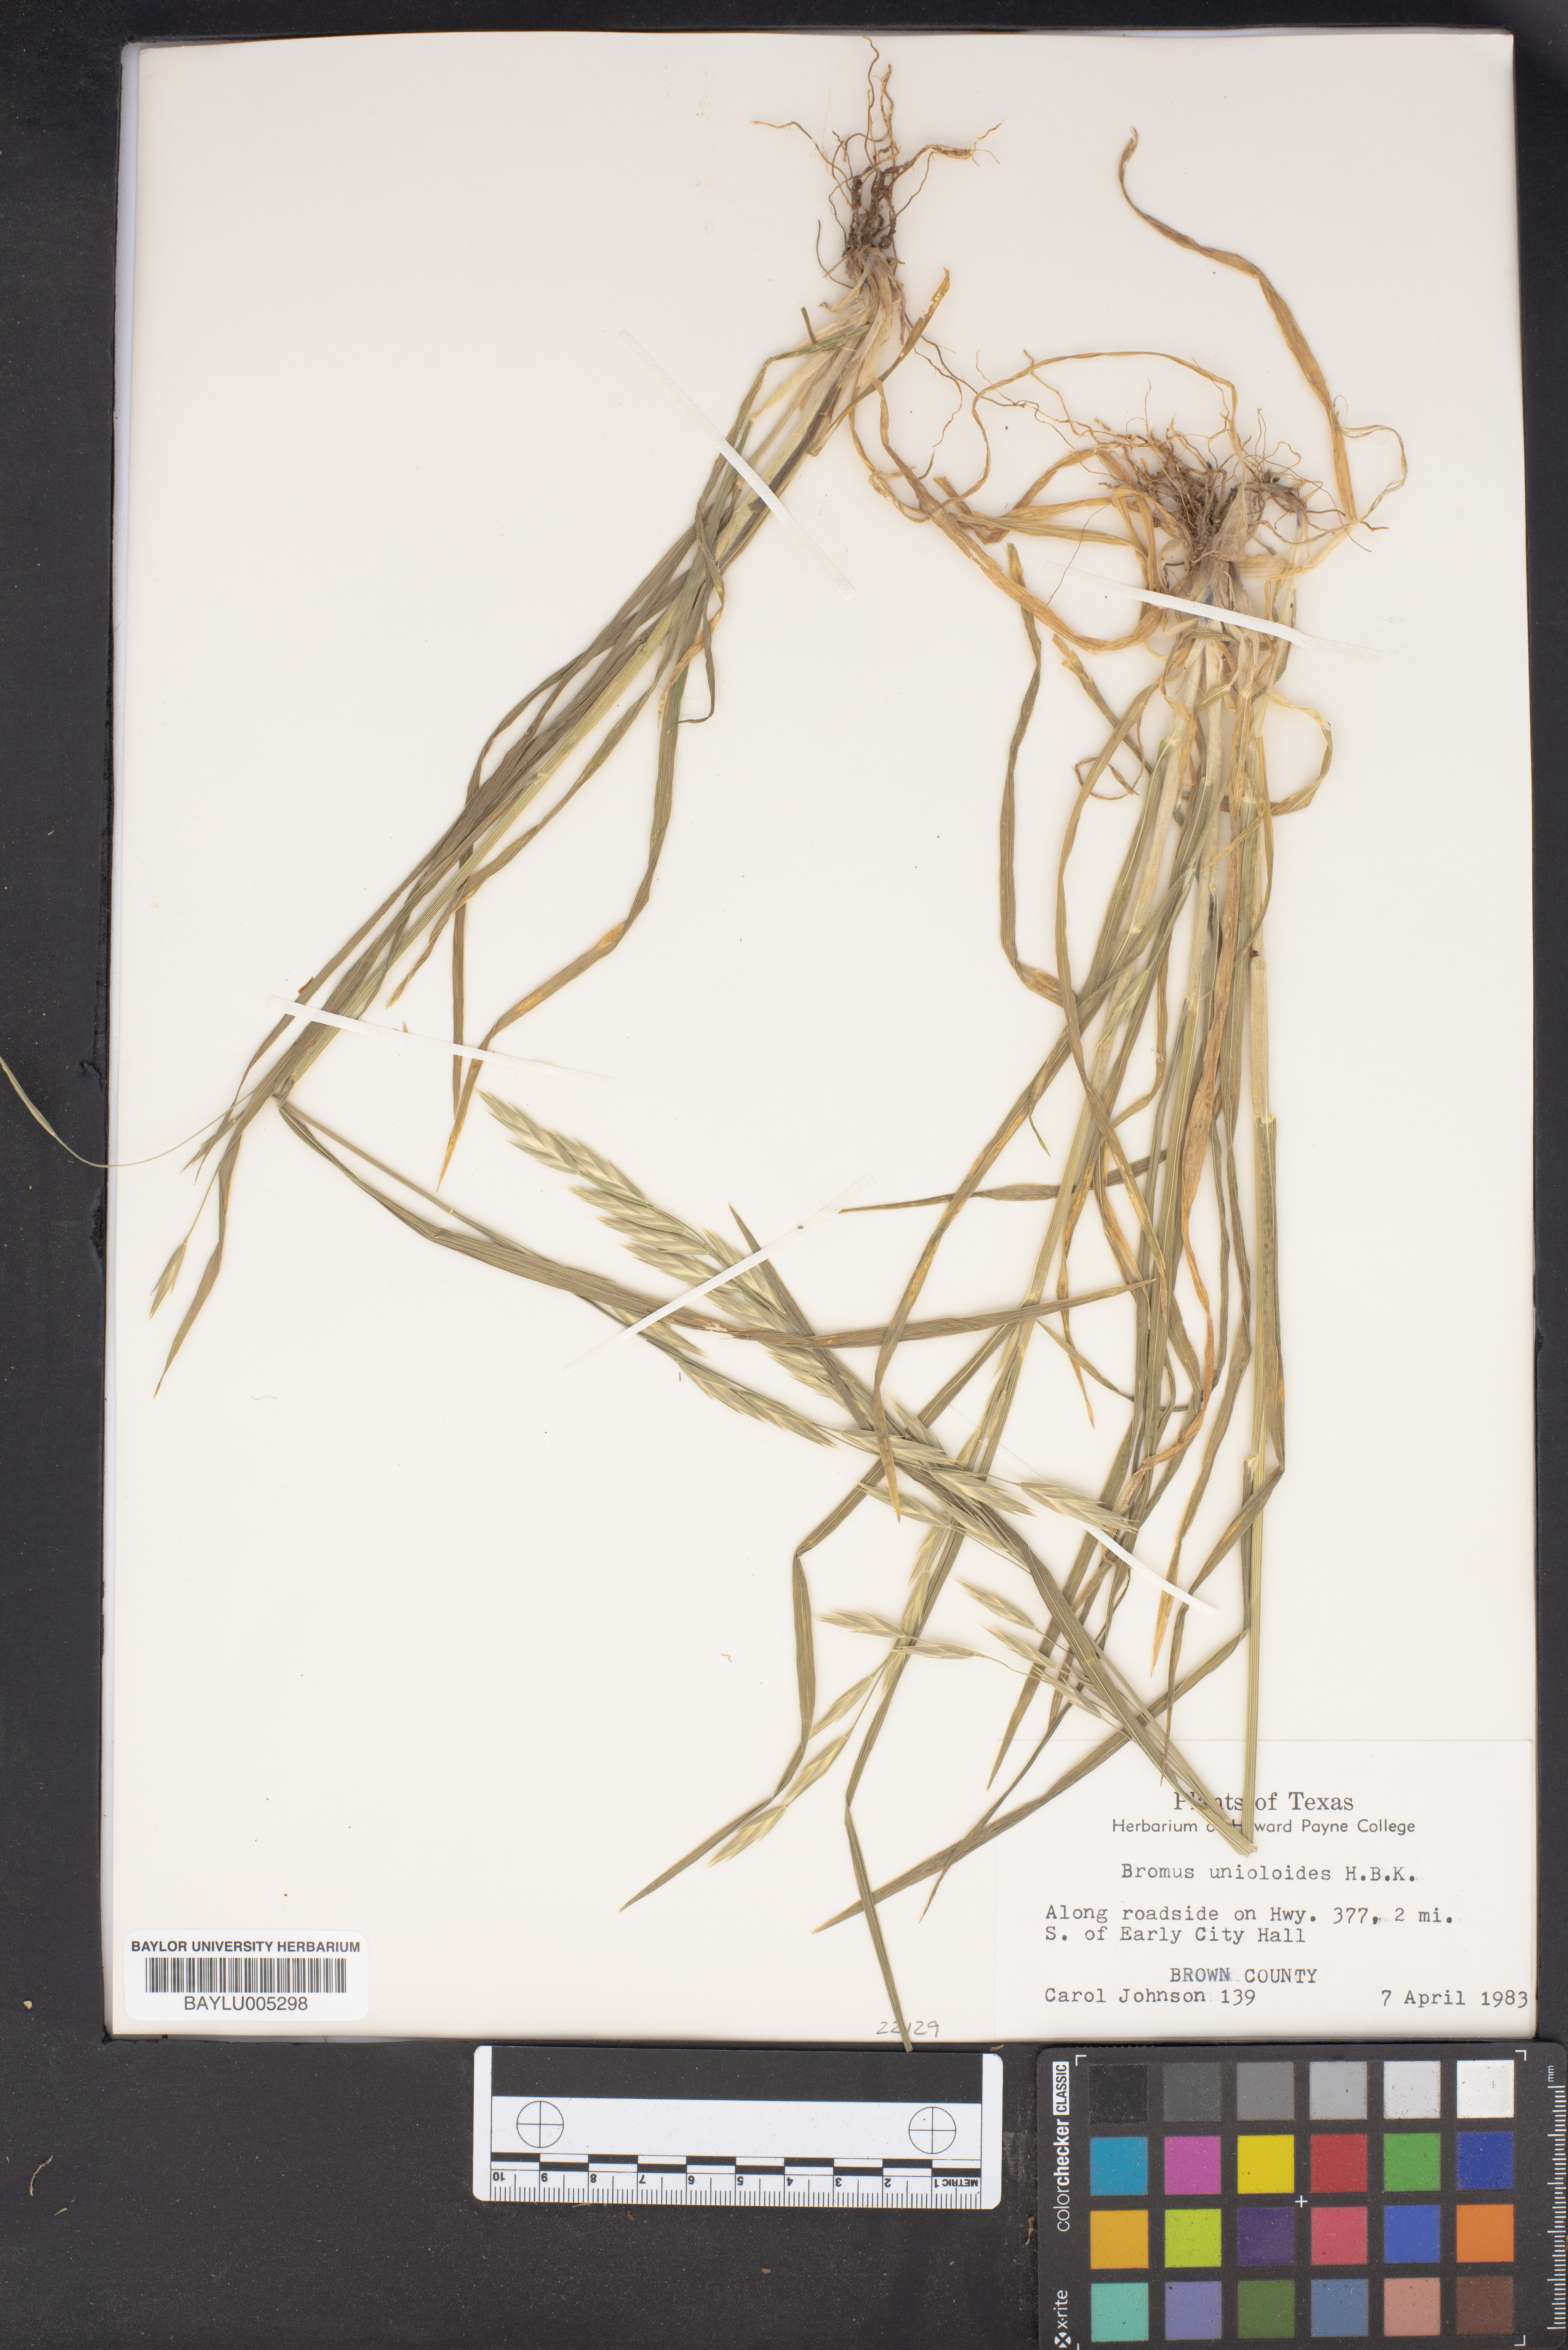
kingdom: Plantae
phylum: Tracheophyta
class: Liliopsida
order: Poales
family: Poaceae
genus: Bromus
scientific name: Bromus catharticus
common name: Rescuegrass
